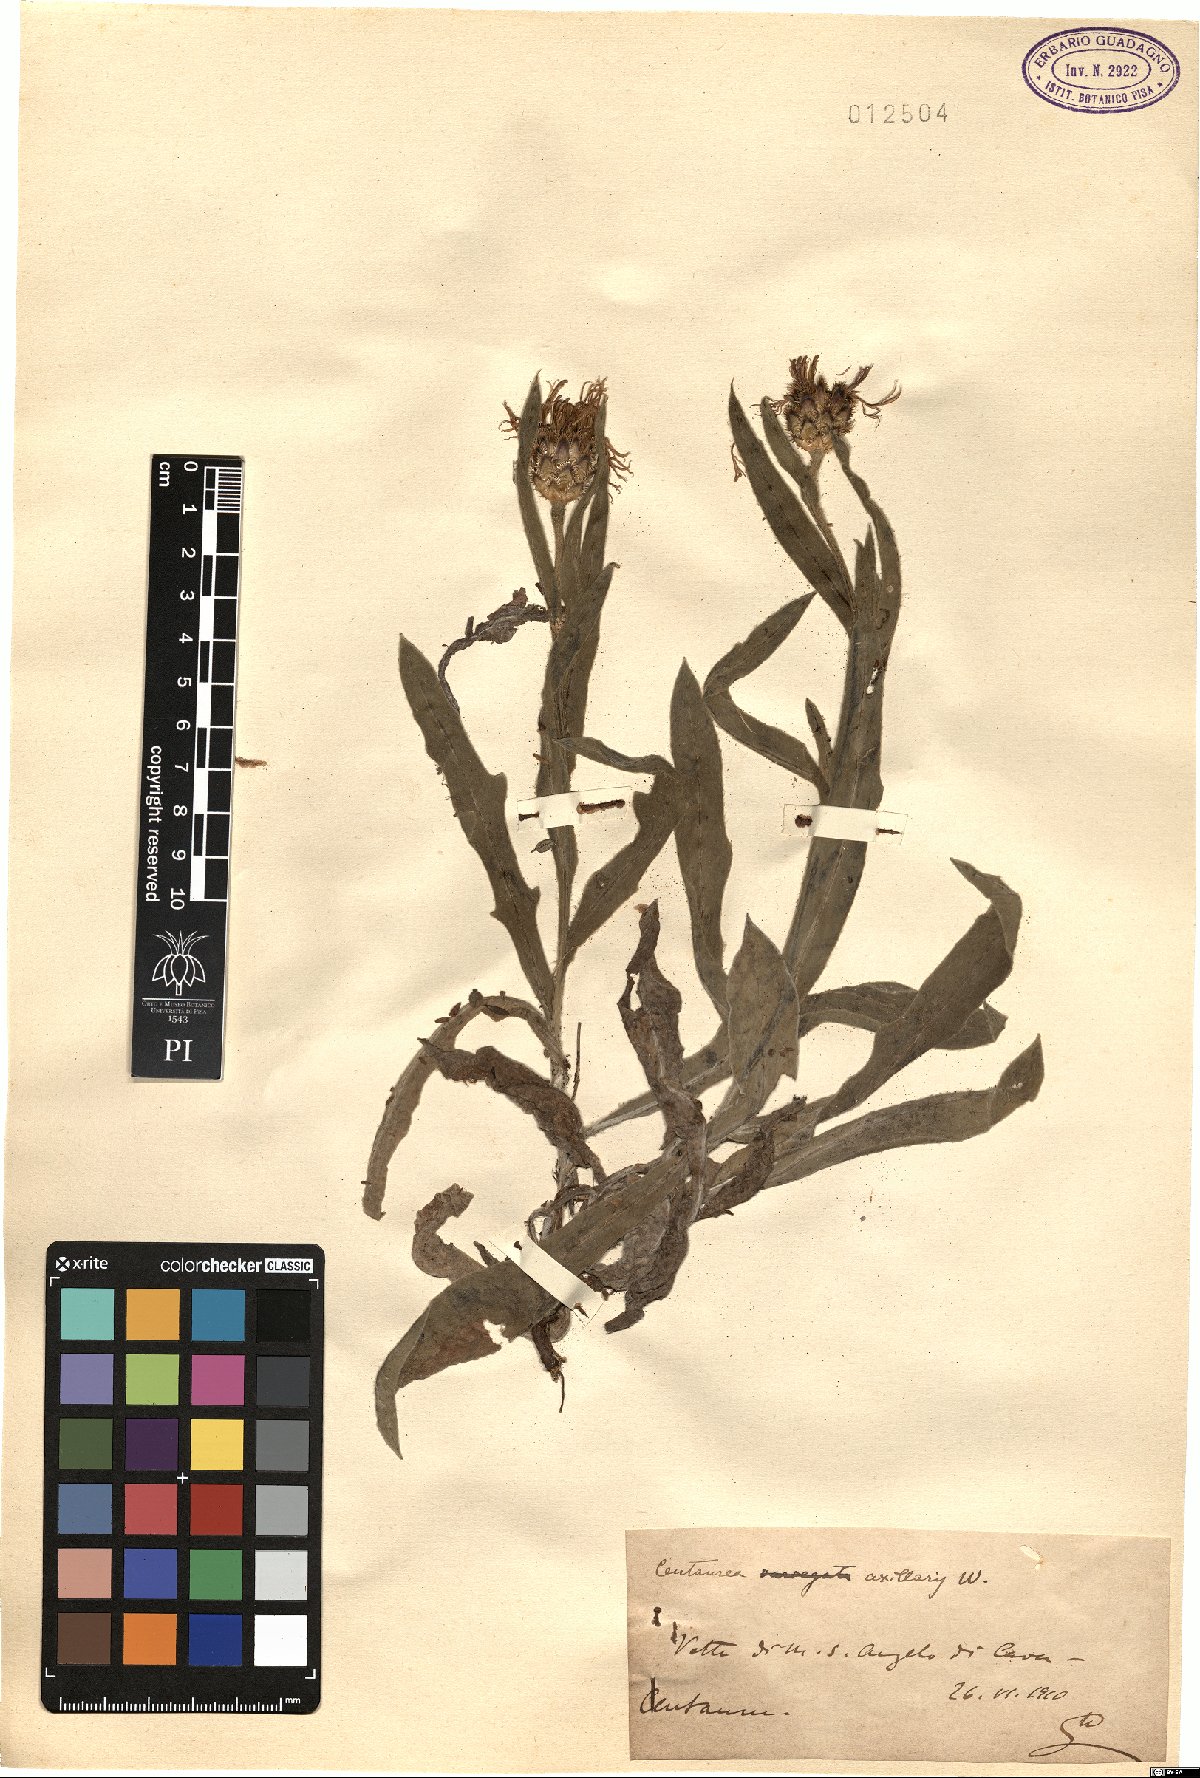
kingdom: Plantae
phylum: Tracheophyta
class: Magnoliopsida
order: Asterales
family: Asteraceae
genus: Centaurea
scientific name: Centaurea triumfettii
